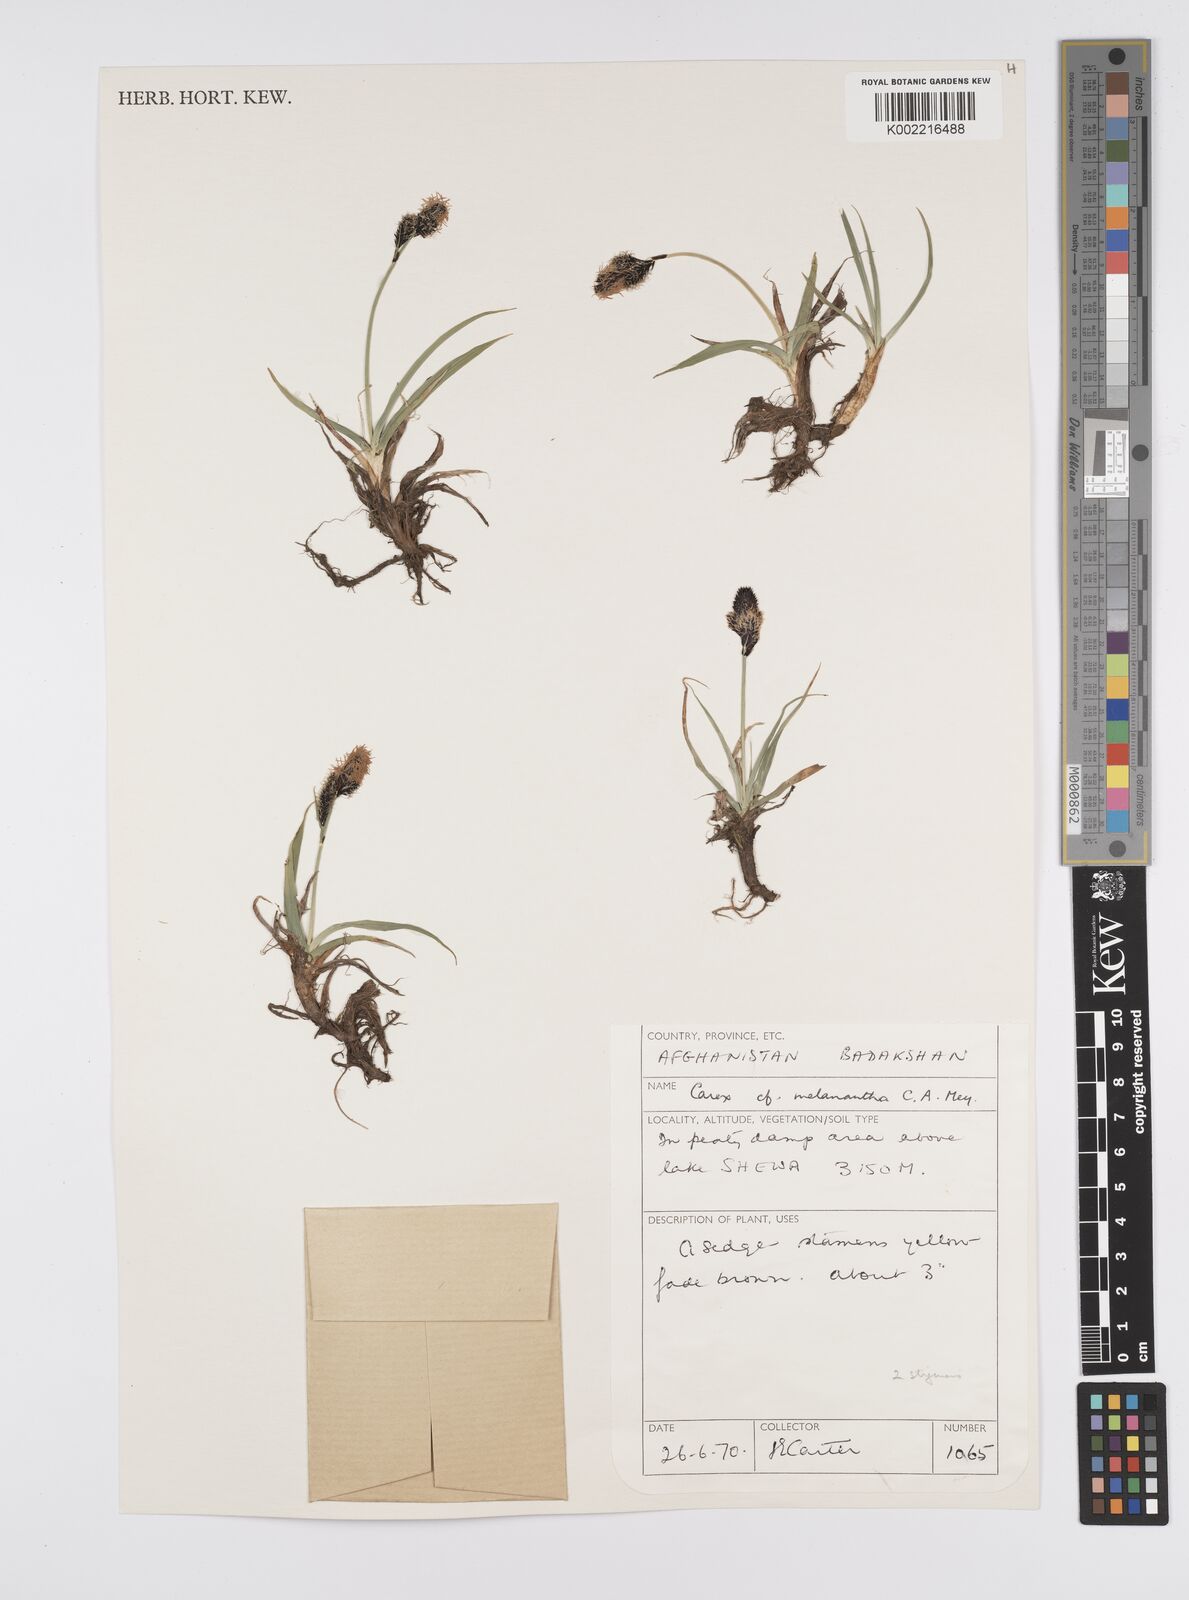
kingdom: Plantae
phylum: Tracheophyta
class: Liliopsida
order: Poales
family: Cyperaceae
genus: Carex
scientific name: Carex melanantha
